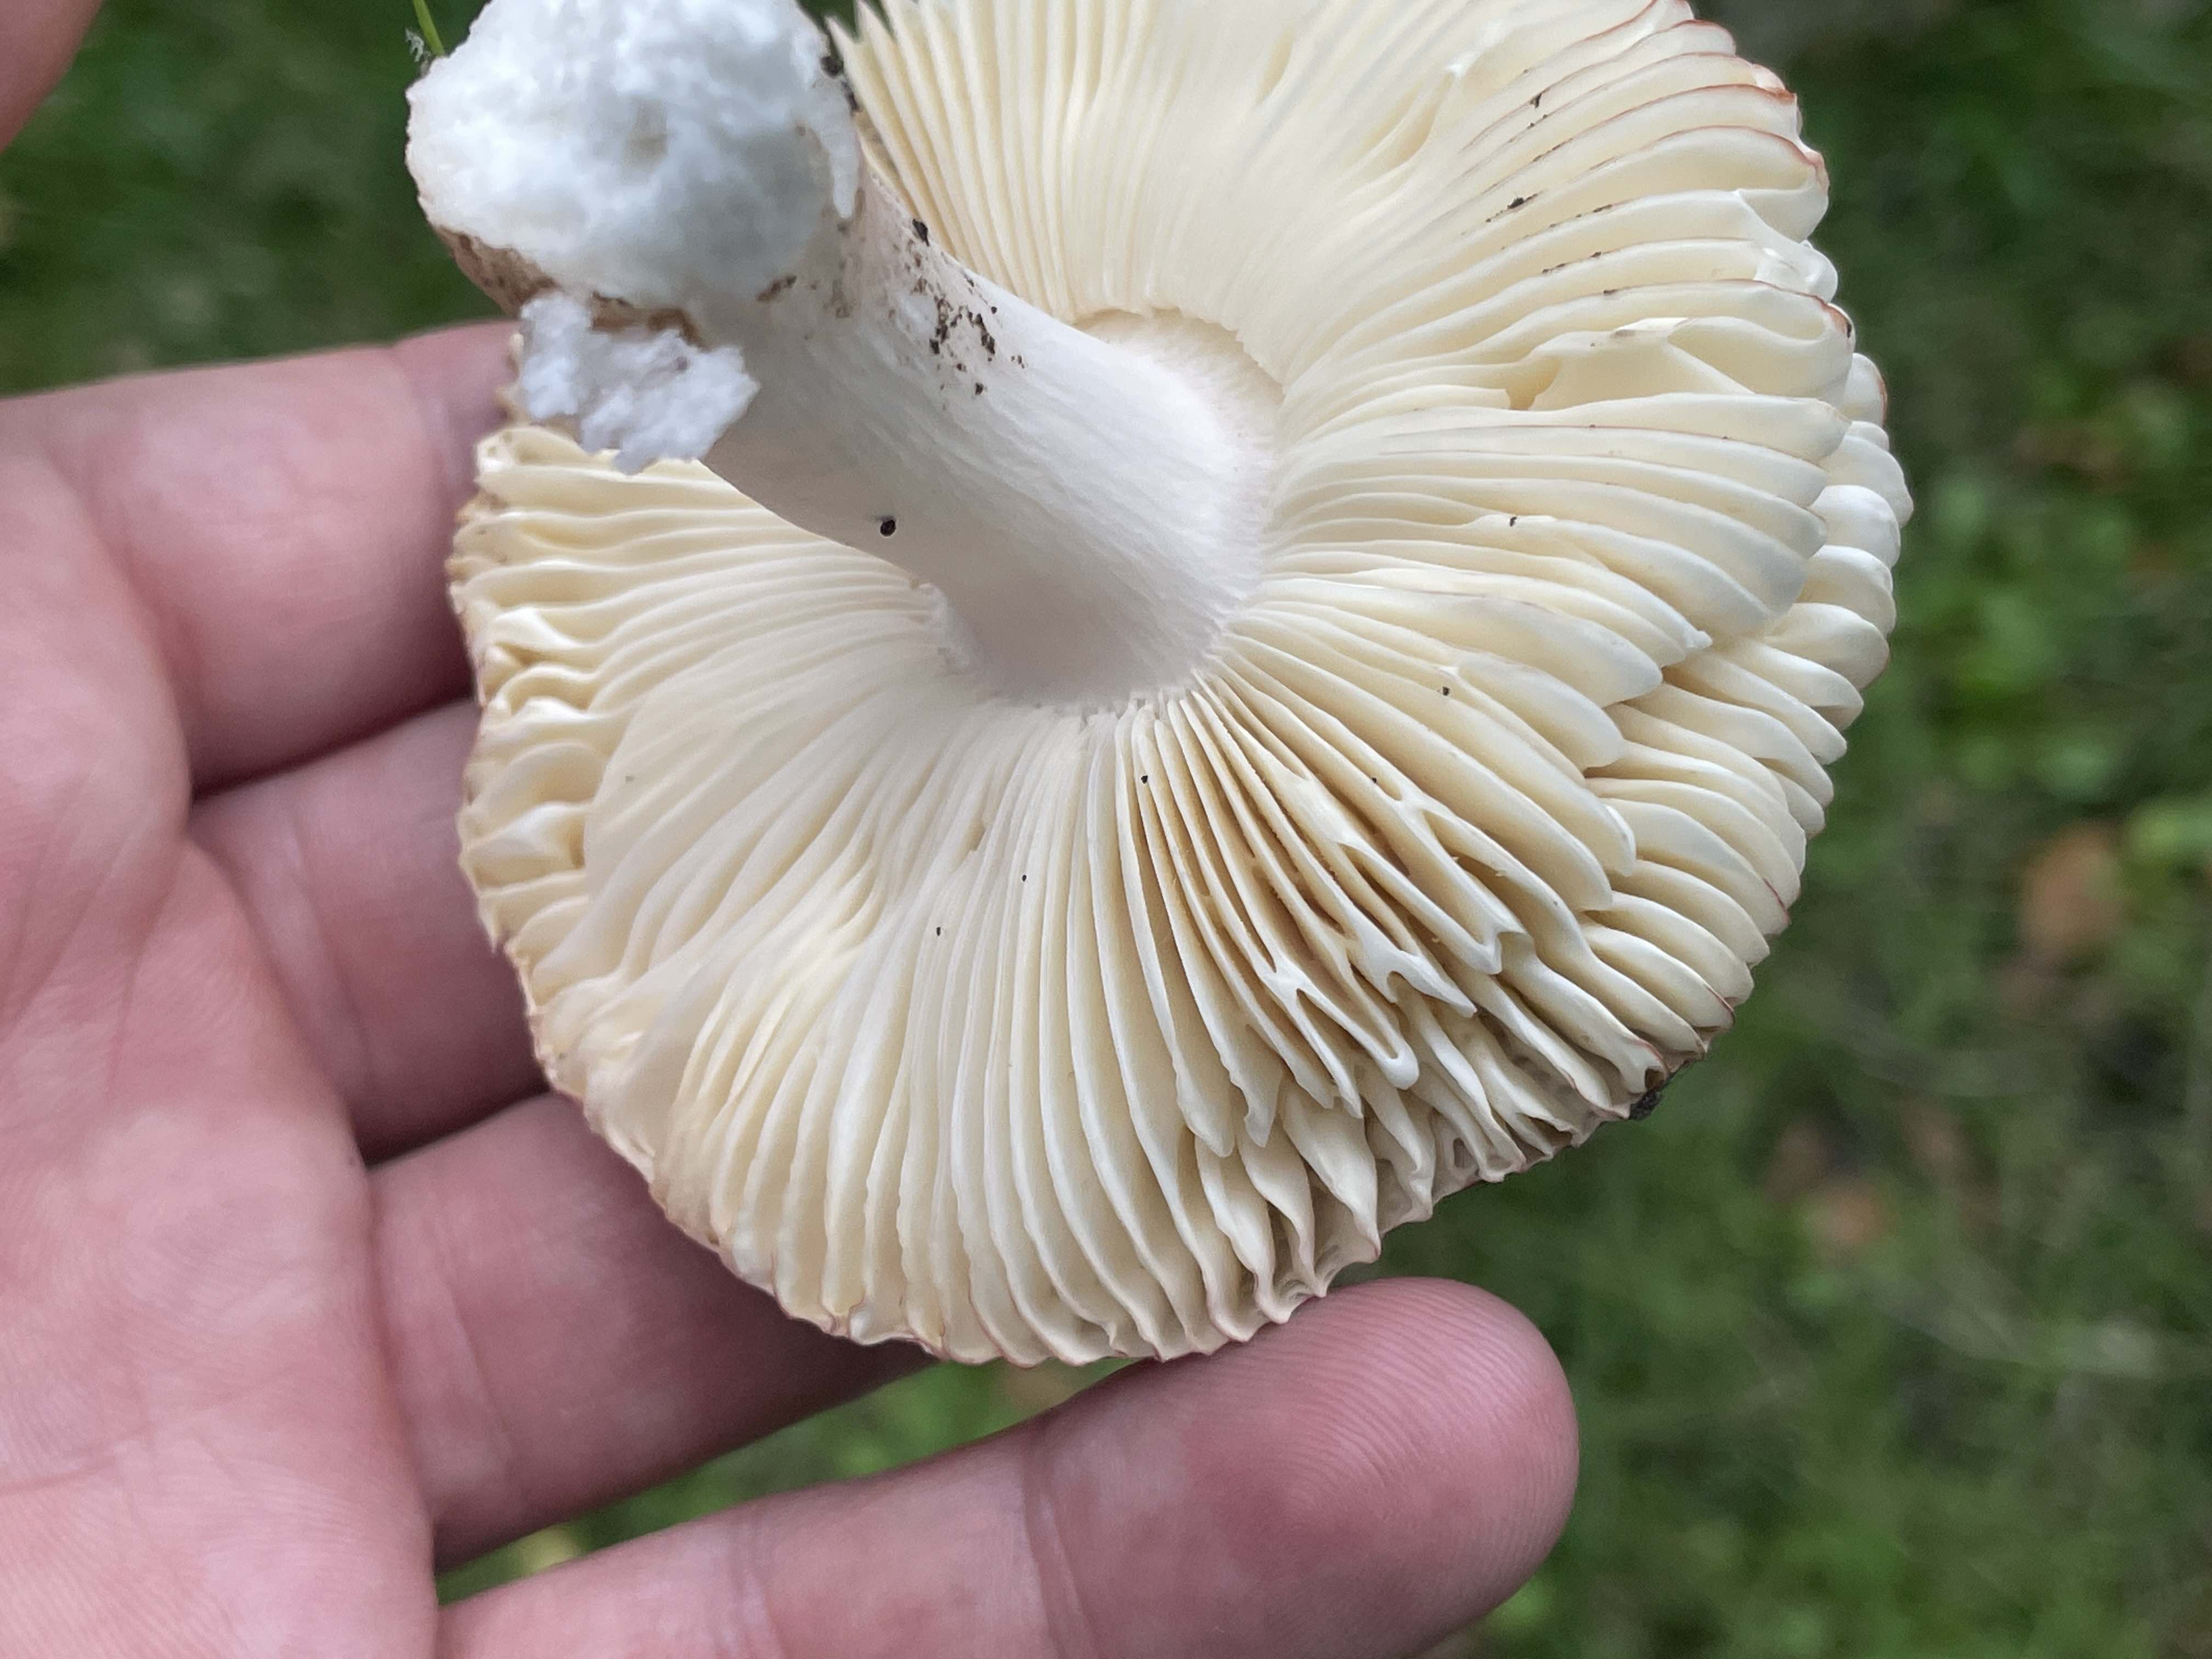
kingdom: Fungi
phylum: Basidiomycota
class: Agaricomycetes
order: Russulales
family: Russulaceae
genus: Russula
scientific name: Russula velenovskyi
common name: orangerød skørhat
